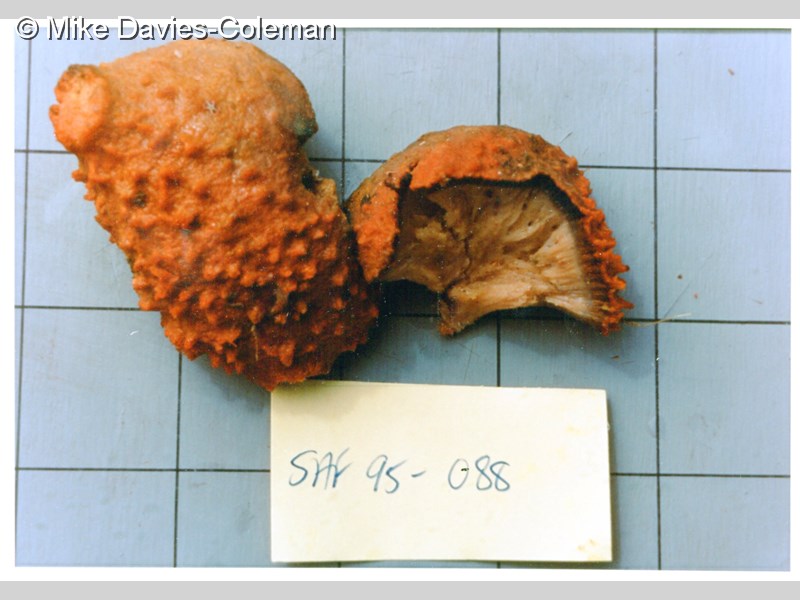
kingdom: Animalia
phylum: Porifera
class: Demospongiae
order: Tetractinellida
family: Ancorinidae
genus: Stelletta
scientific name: Stelletta horrens
